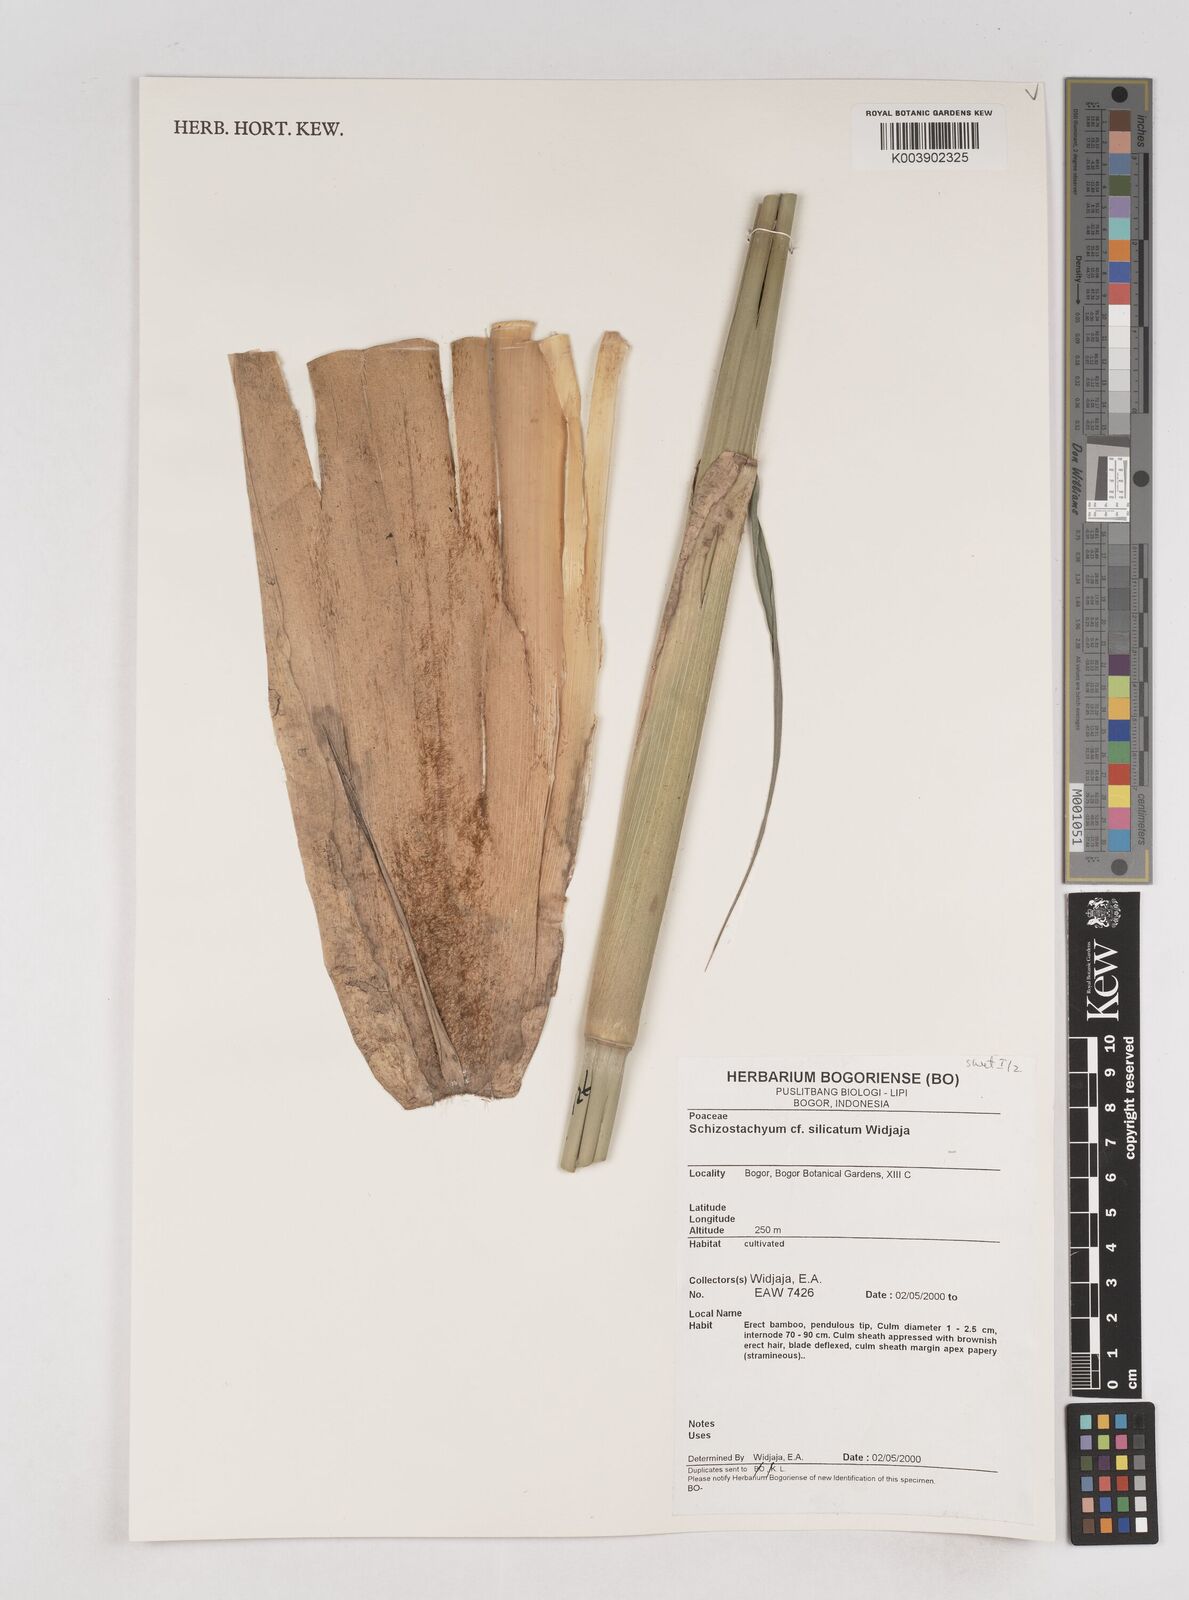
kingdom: Plantae
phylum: Tracheophyta
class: Liliopsida
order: Poales
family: Poaceae
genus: Schizostachyum
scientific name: Schizostachyum silicatum
